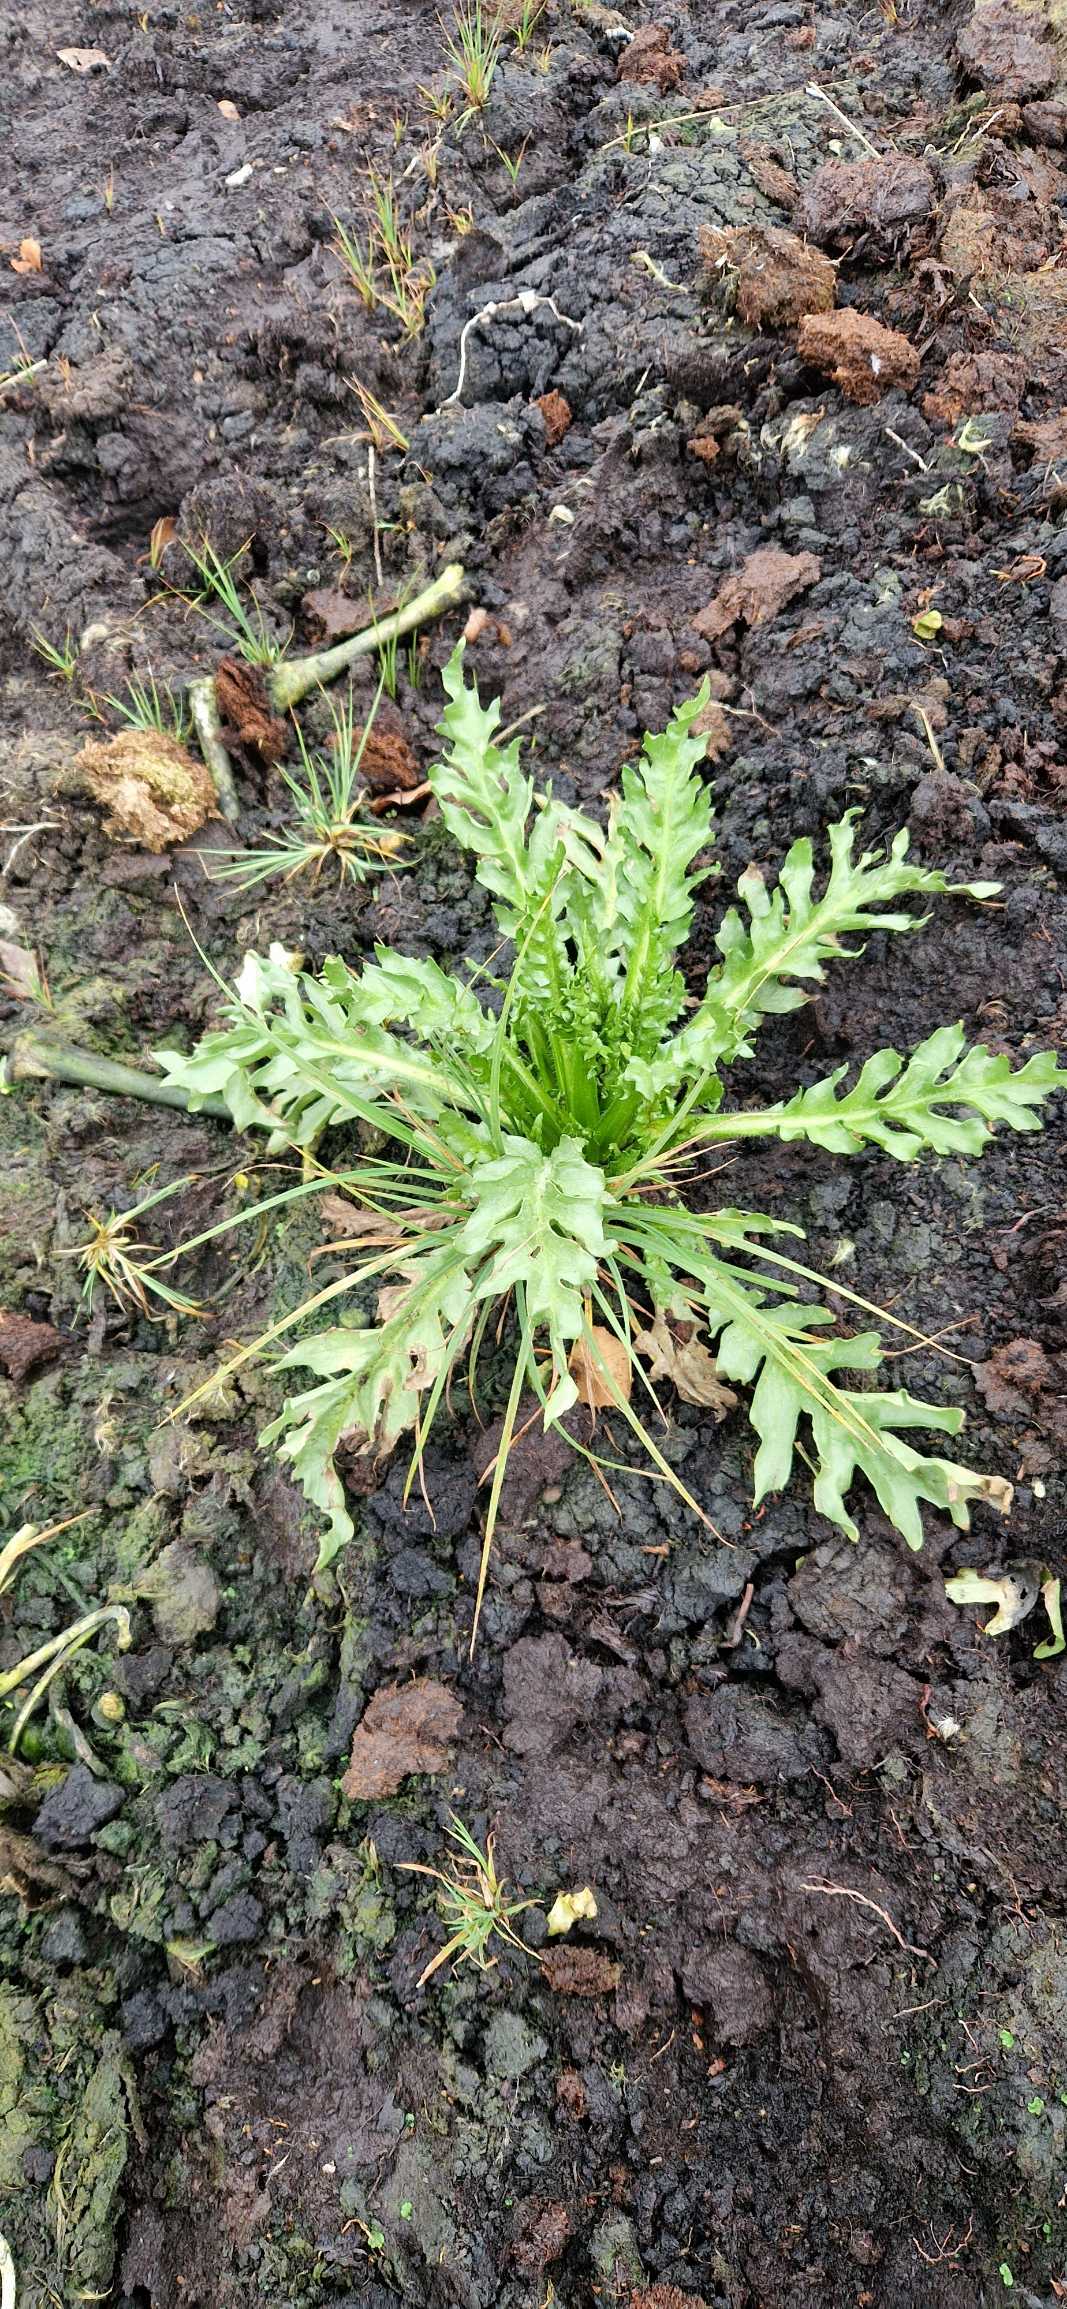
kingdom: Plantae
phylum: Tracheophyta
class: Magnoliopsida
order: Asterales
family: Asteraceae
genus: Tephroseris
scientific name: Tephroseris palustris
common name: Kær-fnokurt
